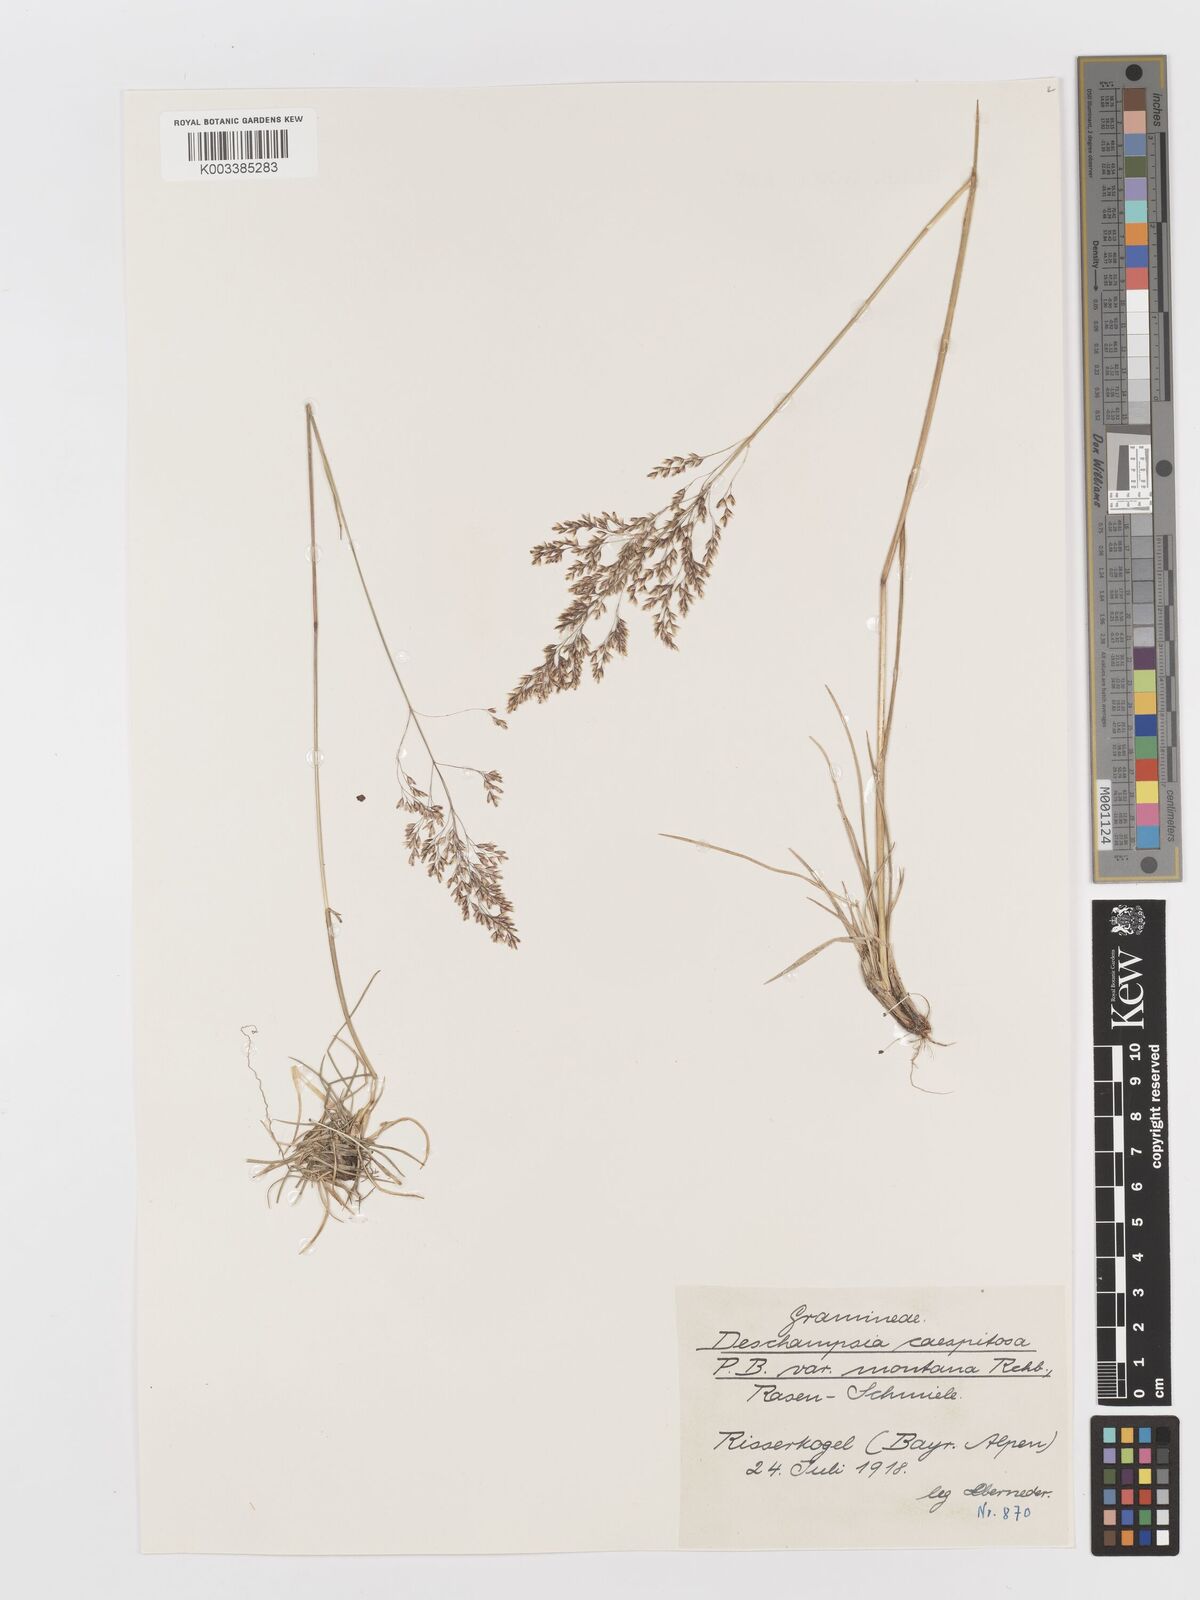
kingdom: Plantae
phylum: Tracheophyta
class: Liliopsida
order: Poales
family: Poaceae
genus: Deschampsia
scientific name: Deschampsia cespitosa
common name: Tufted hair-grass
